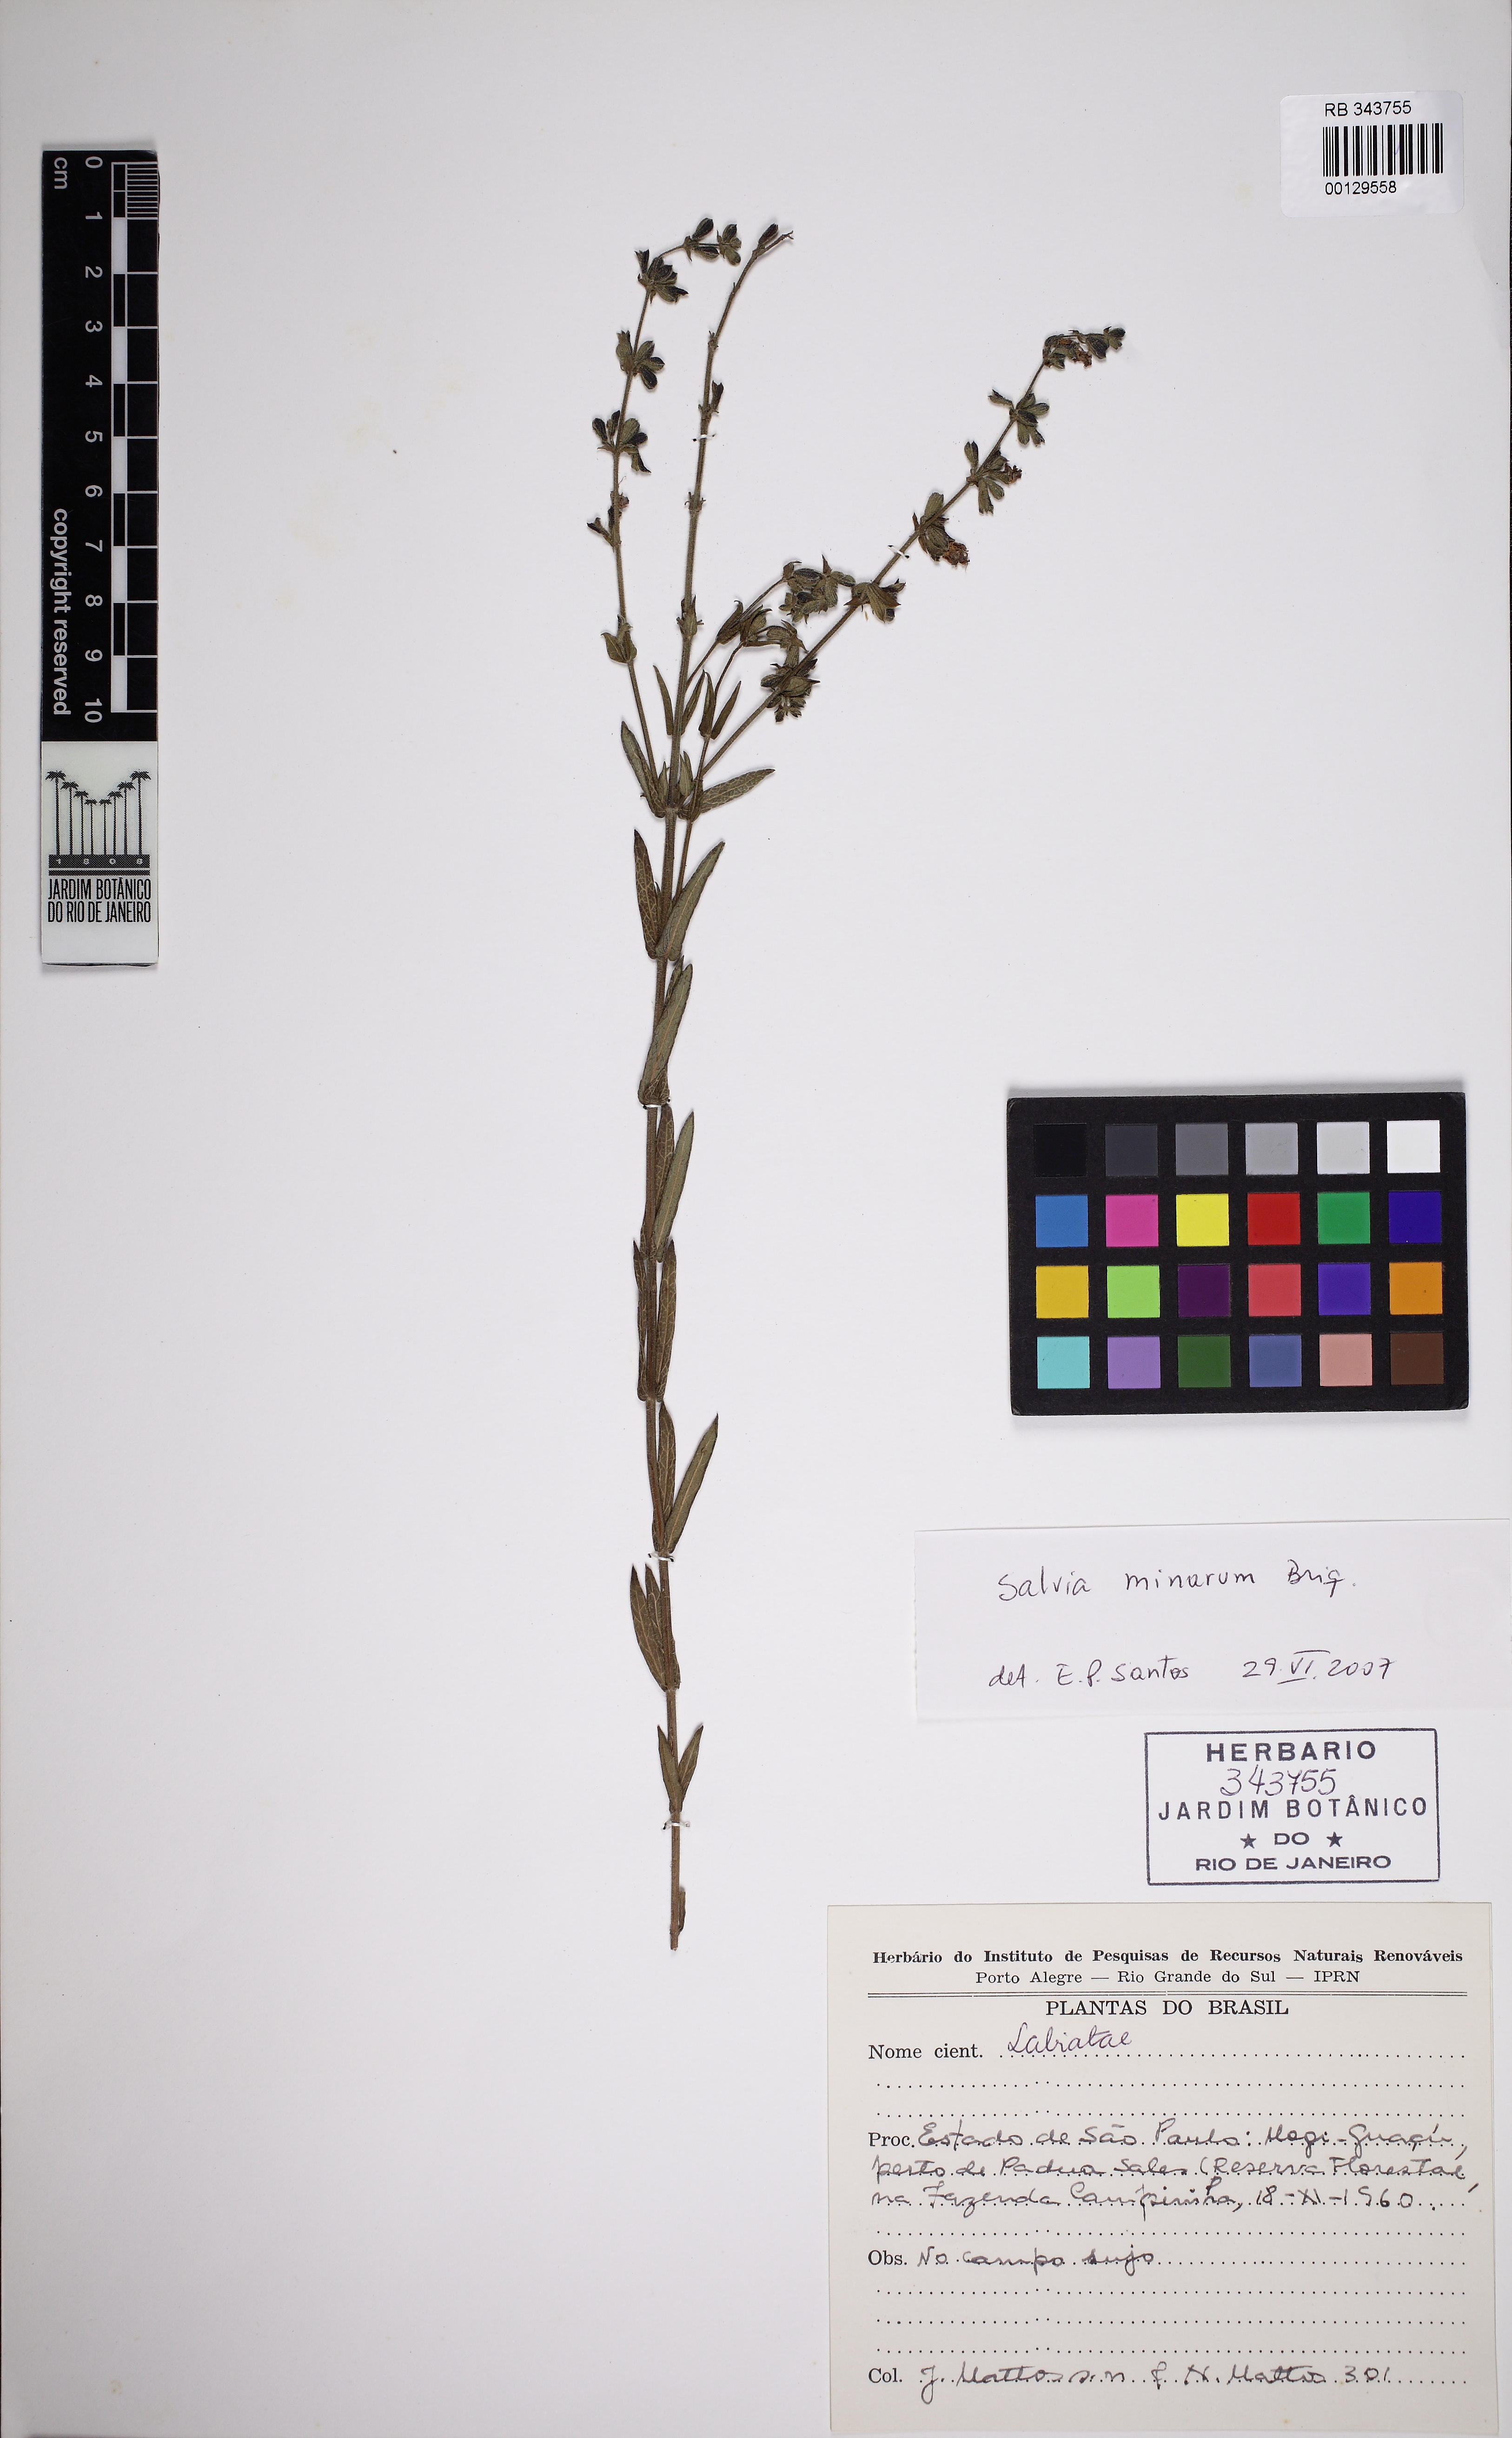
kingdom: Plantae
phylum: Tracheophyta
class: Magnoliopsida
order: Lamiales
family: Lamiaceae
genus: Salvia
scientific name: Salvia minarum
